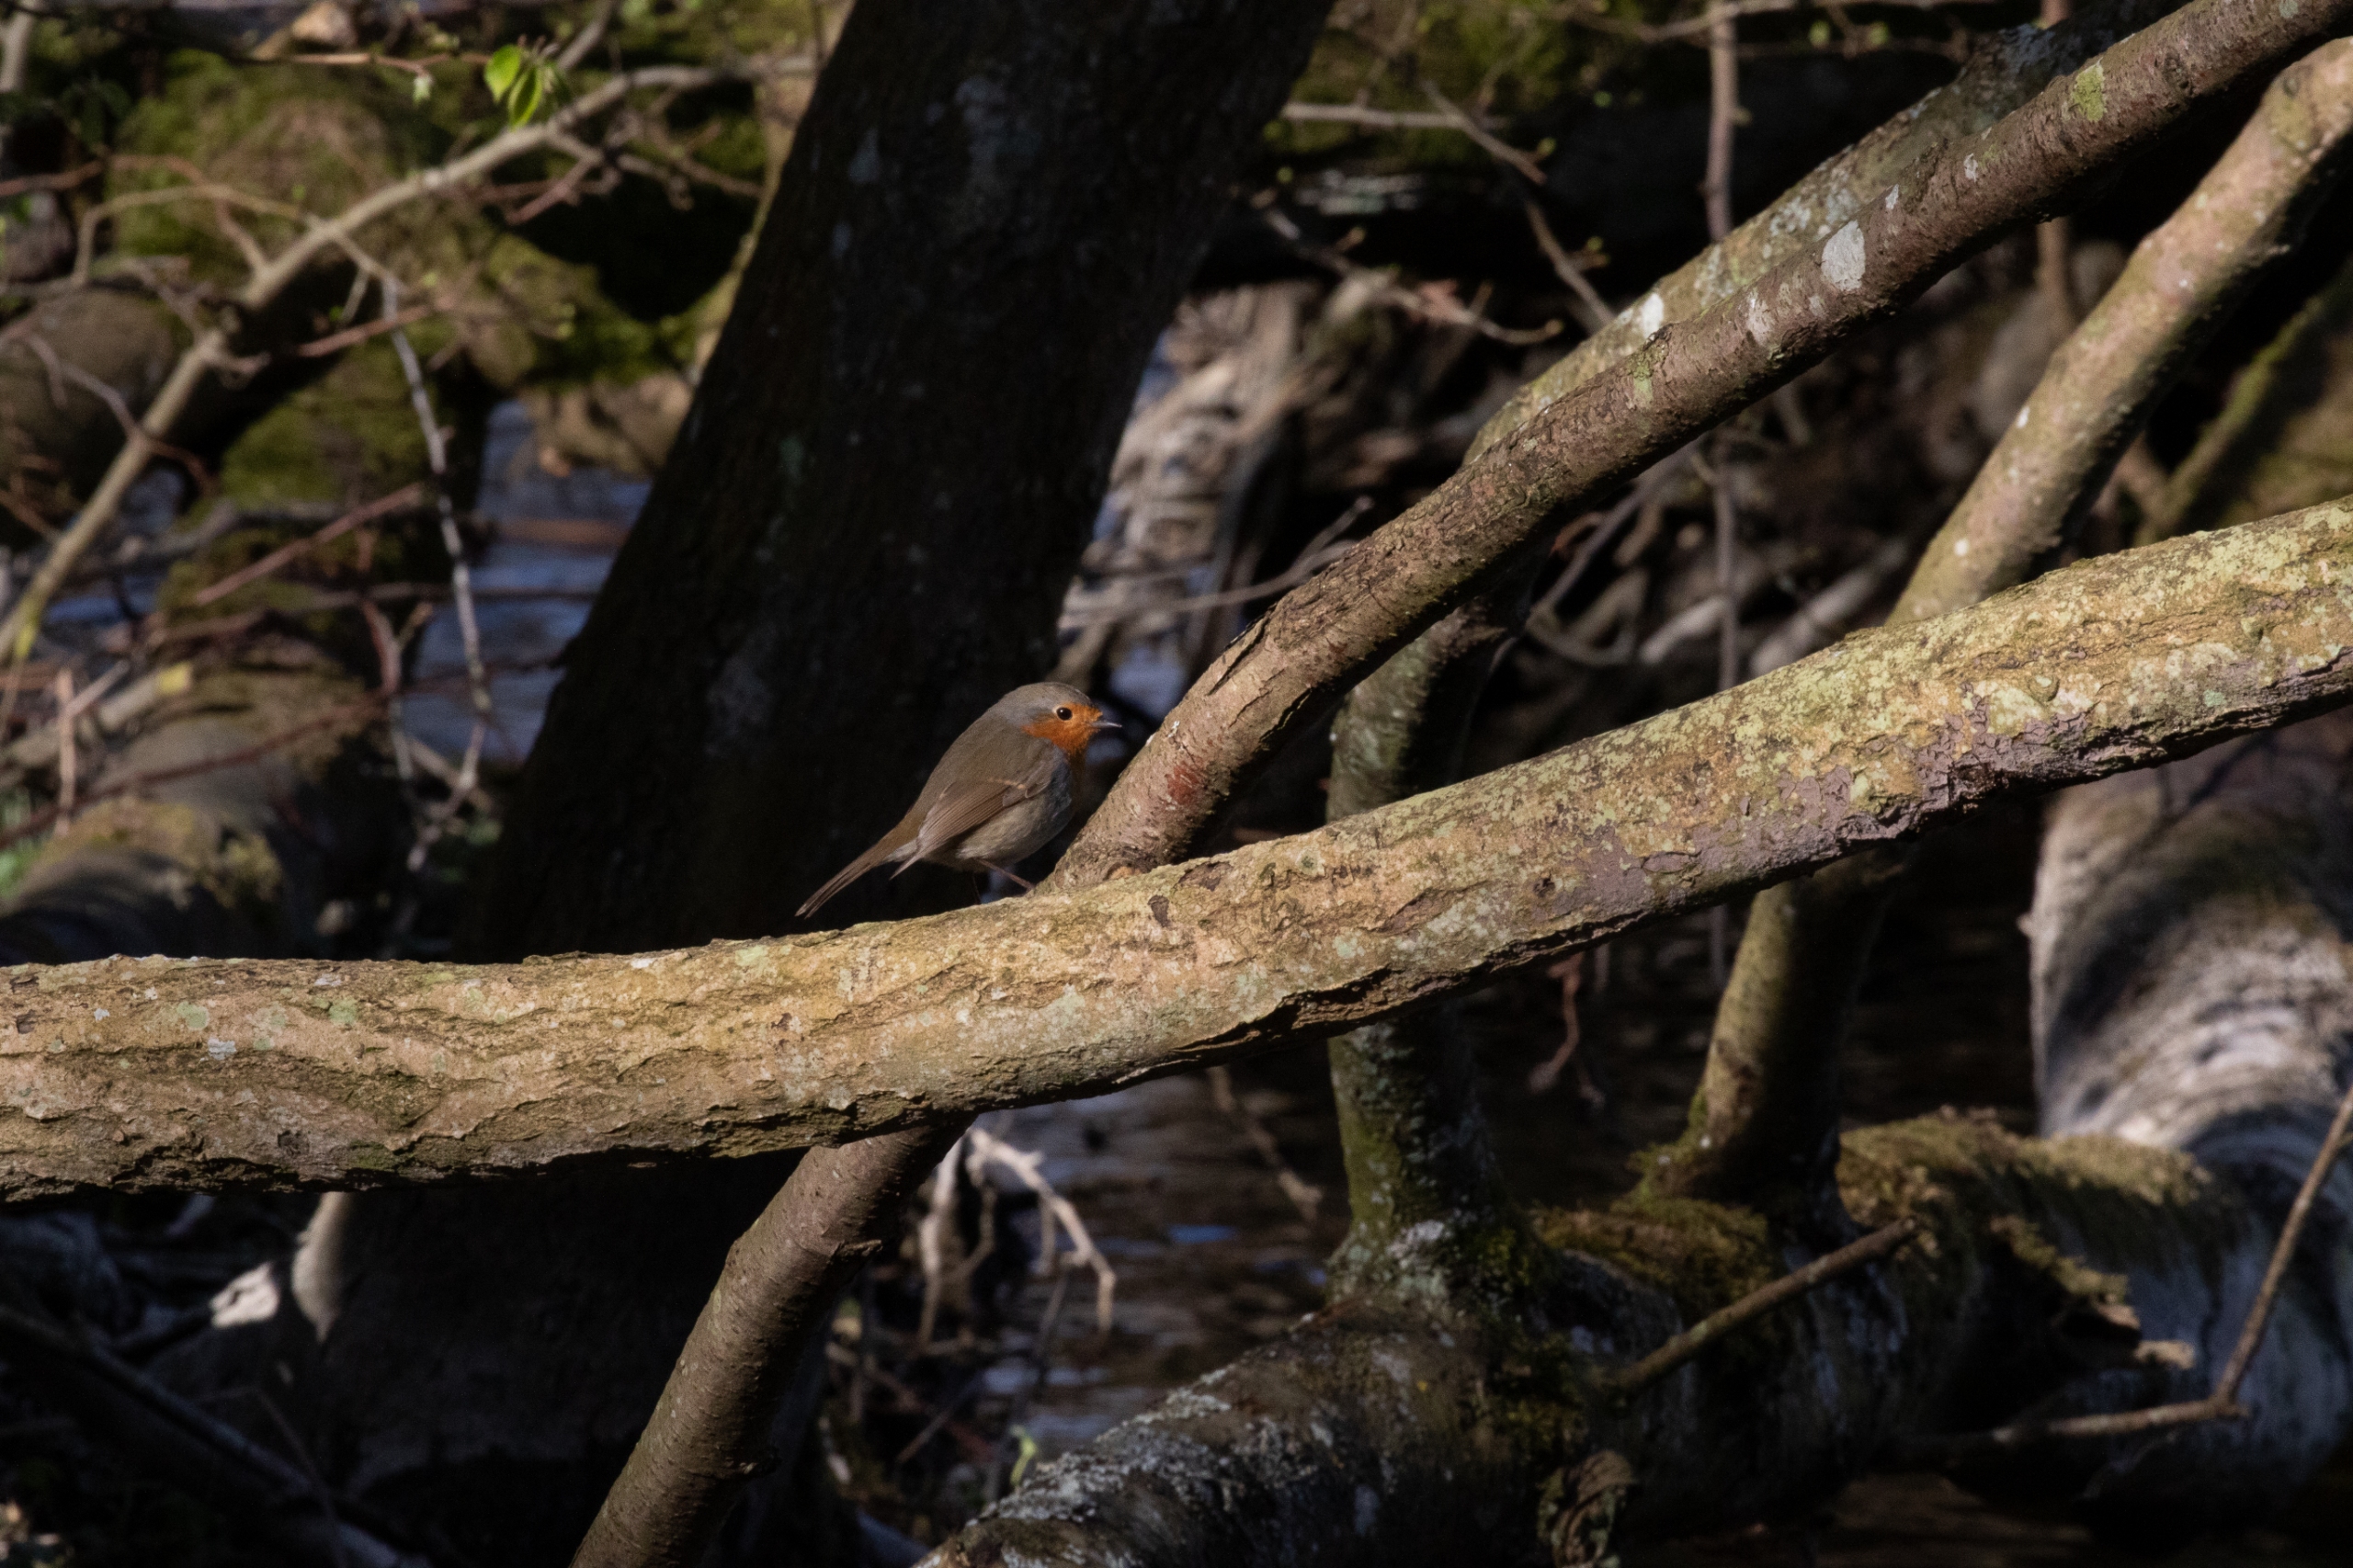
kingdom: Animalia
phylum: Chordata
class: Aves
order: Passeriformes
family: Muscicapidae
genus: Erithacus
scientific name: Erithacus rubecula
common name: Rødhals/rødkælk
